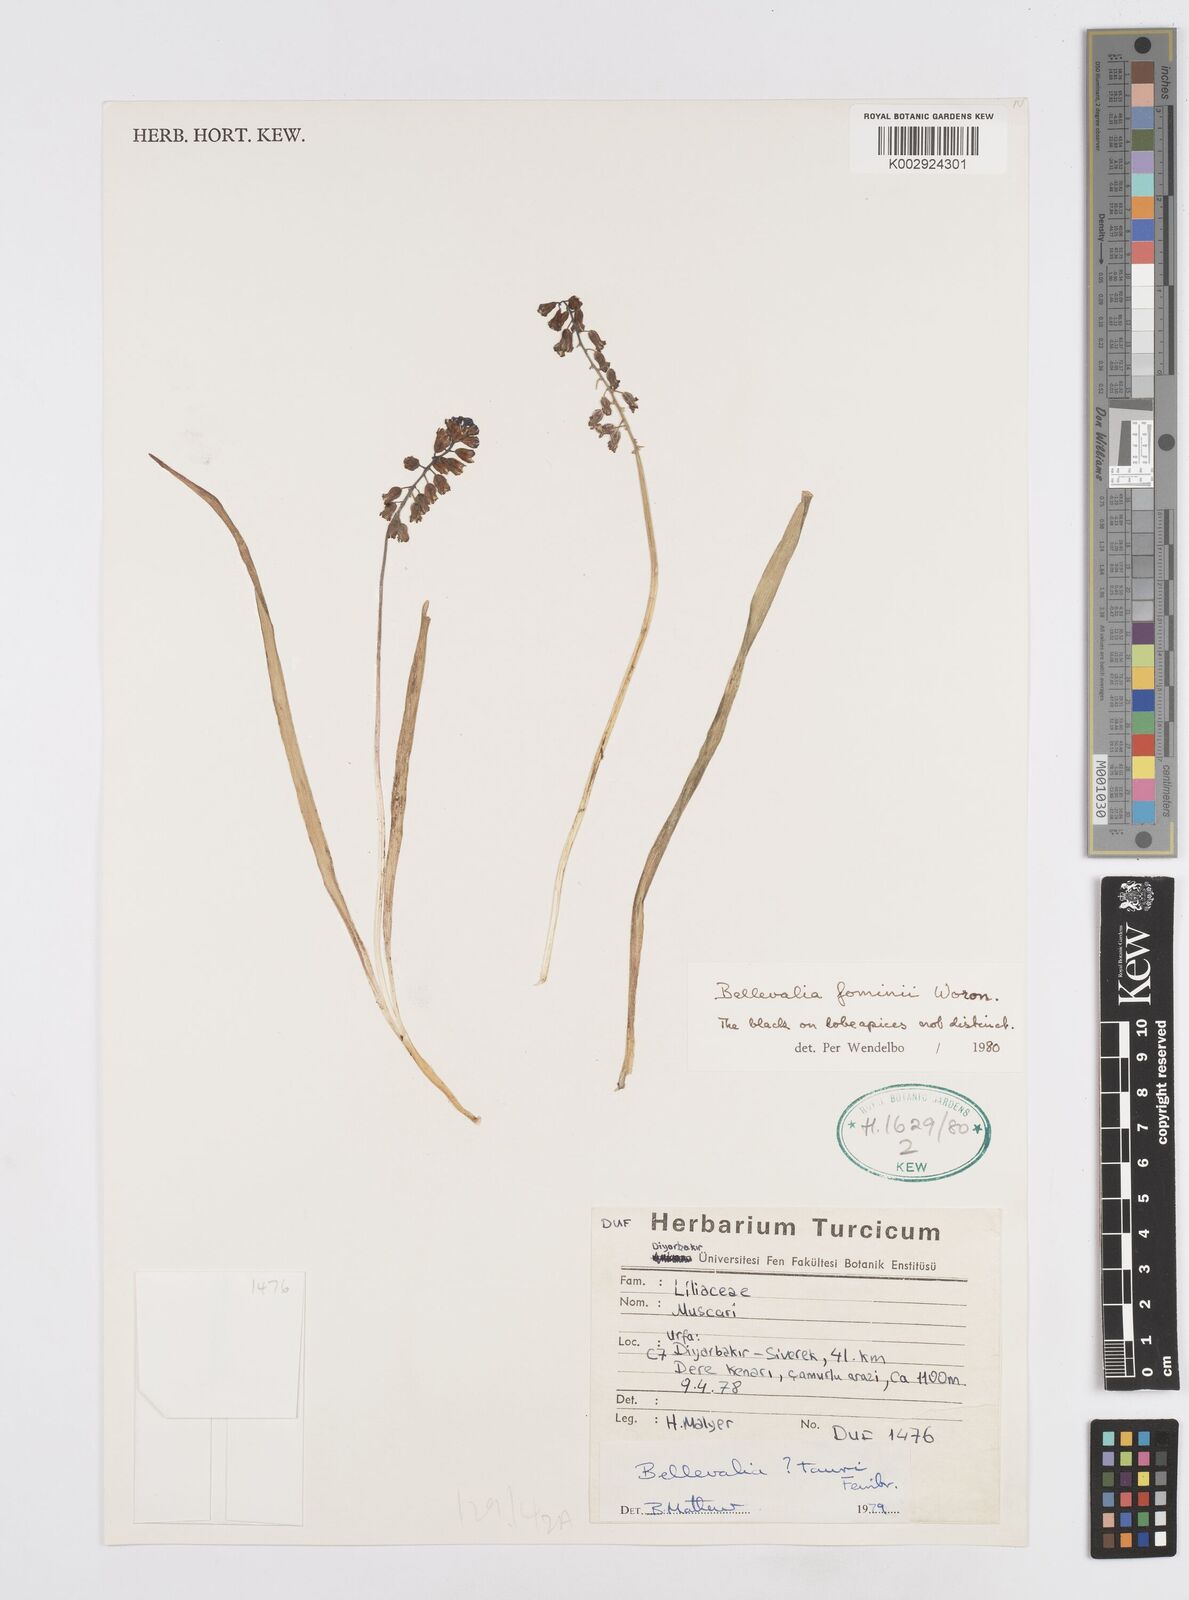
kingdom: Plantae
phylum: Tracheophyta
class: Liliopsida
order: Asparagales
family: Asparagaceae
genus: Bellevalia
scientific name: Bellevalia fominii
